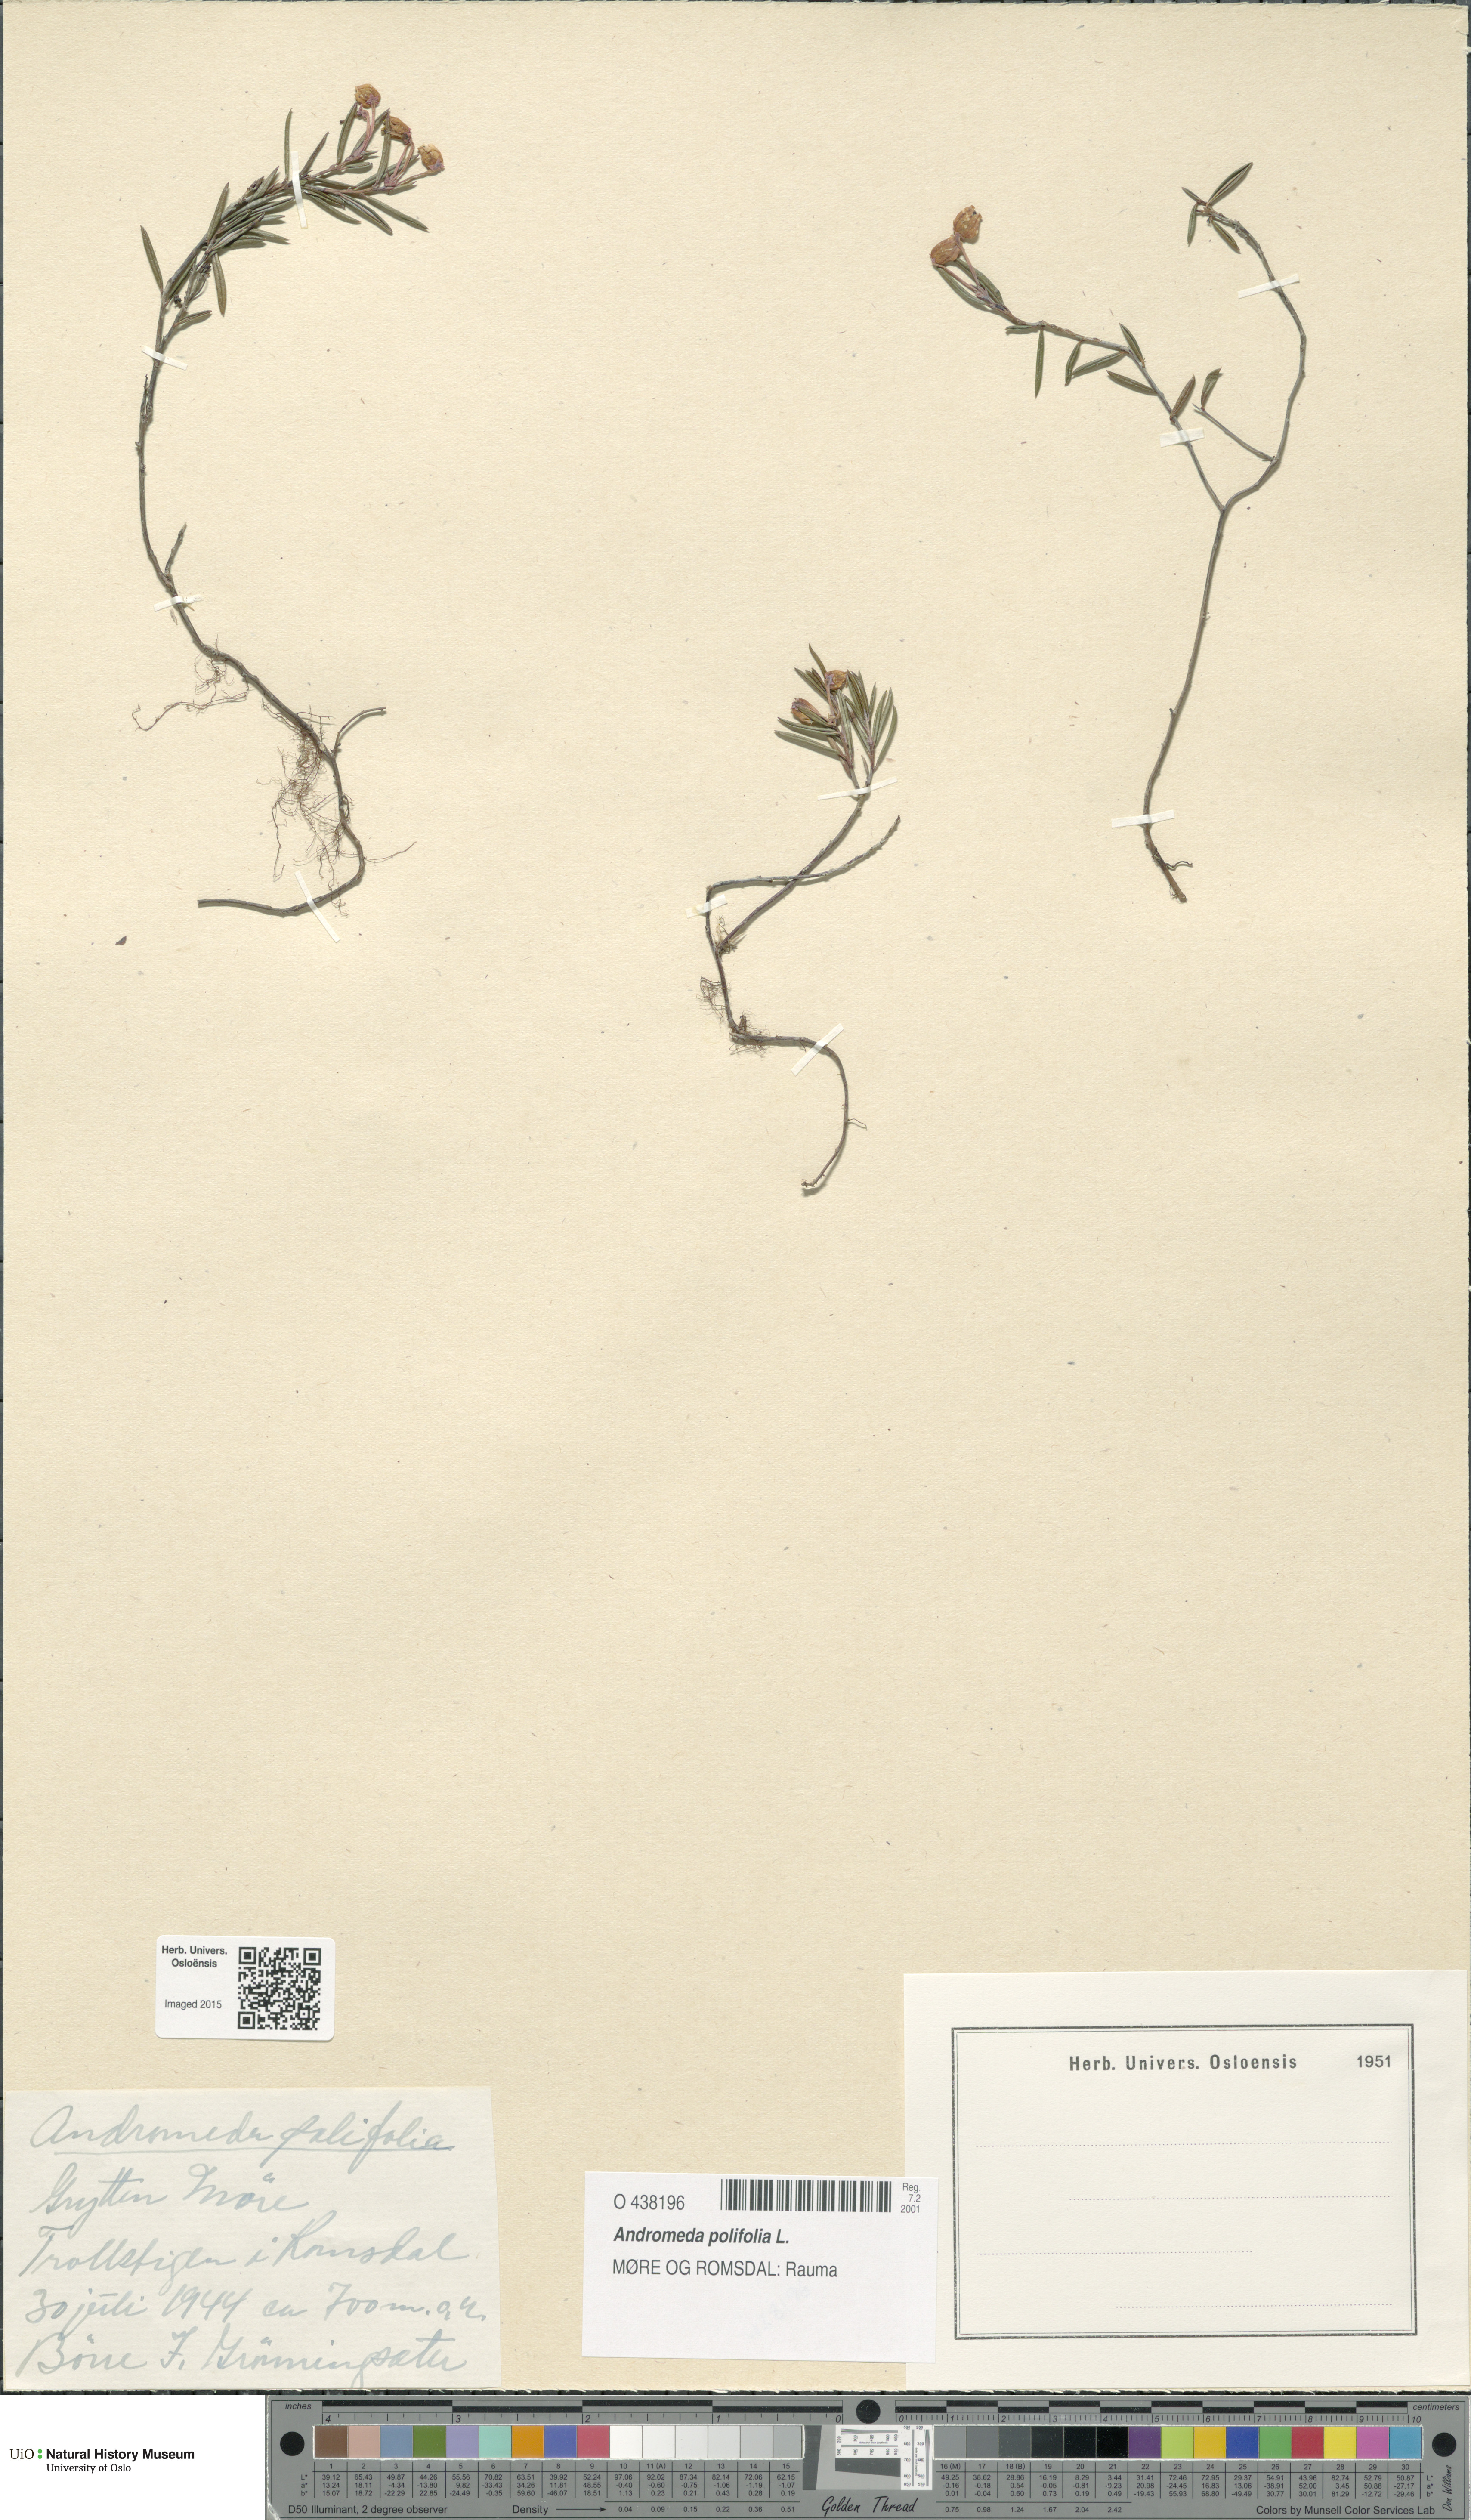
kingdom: Plantae
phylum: Tracheophyta
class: Magnoliopsida
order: Ericales
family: Ericaceae
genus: Andromeda
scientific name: Andromeda polifolia
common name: Bog-rosemary
